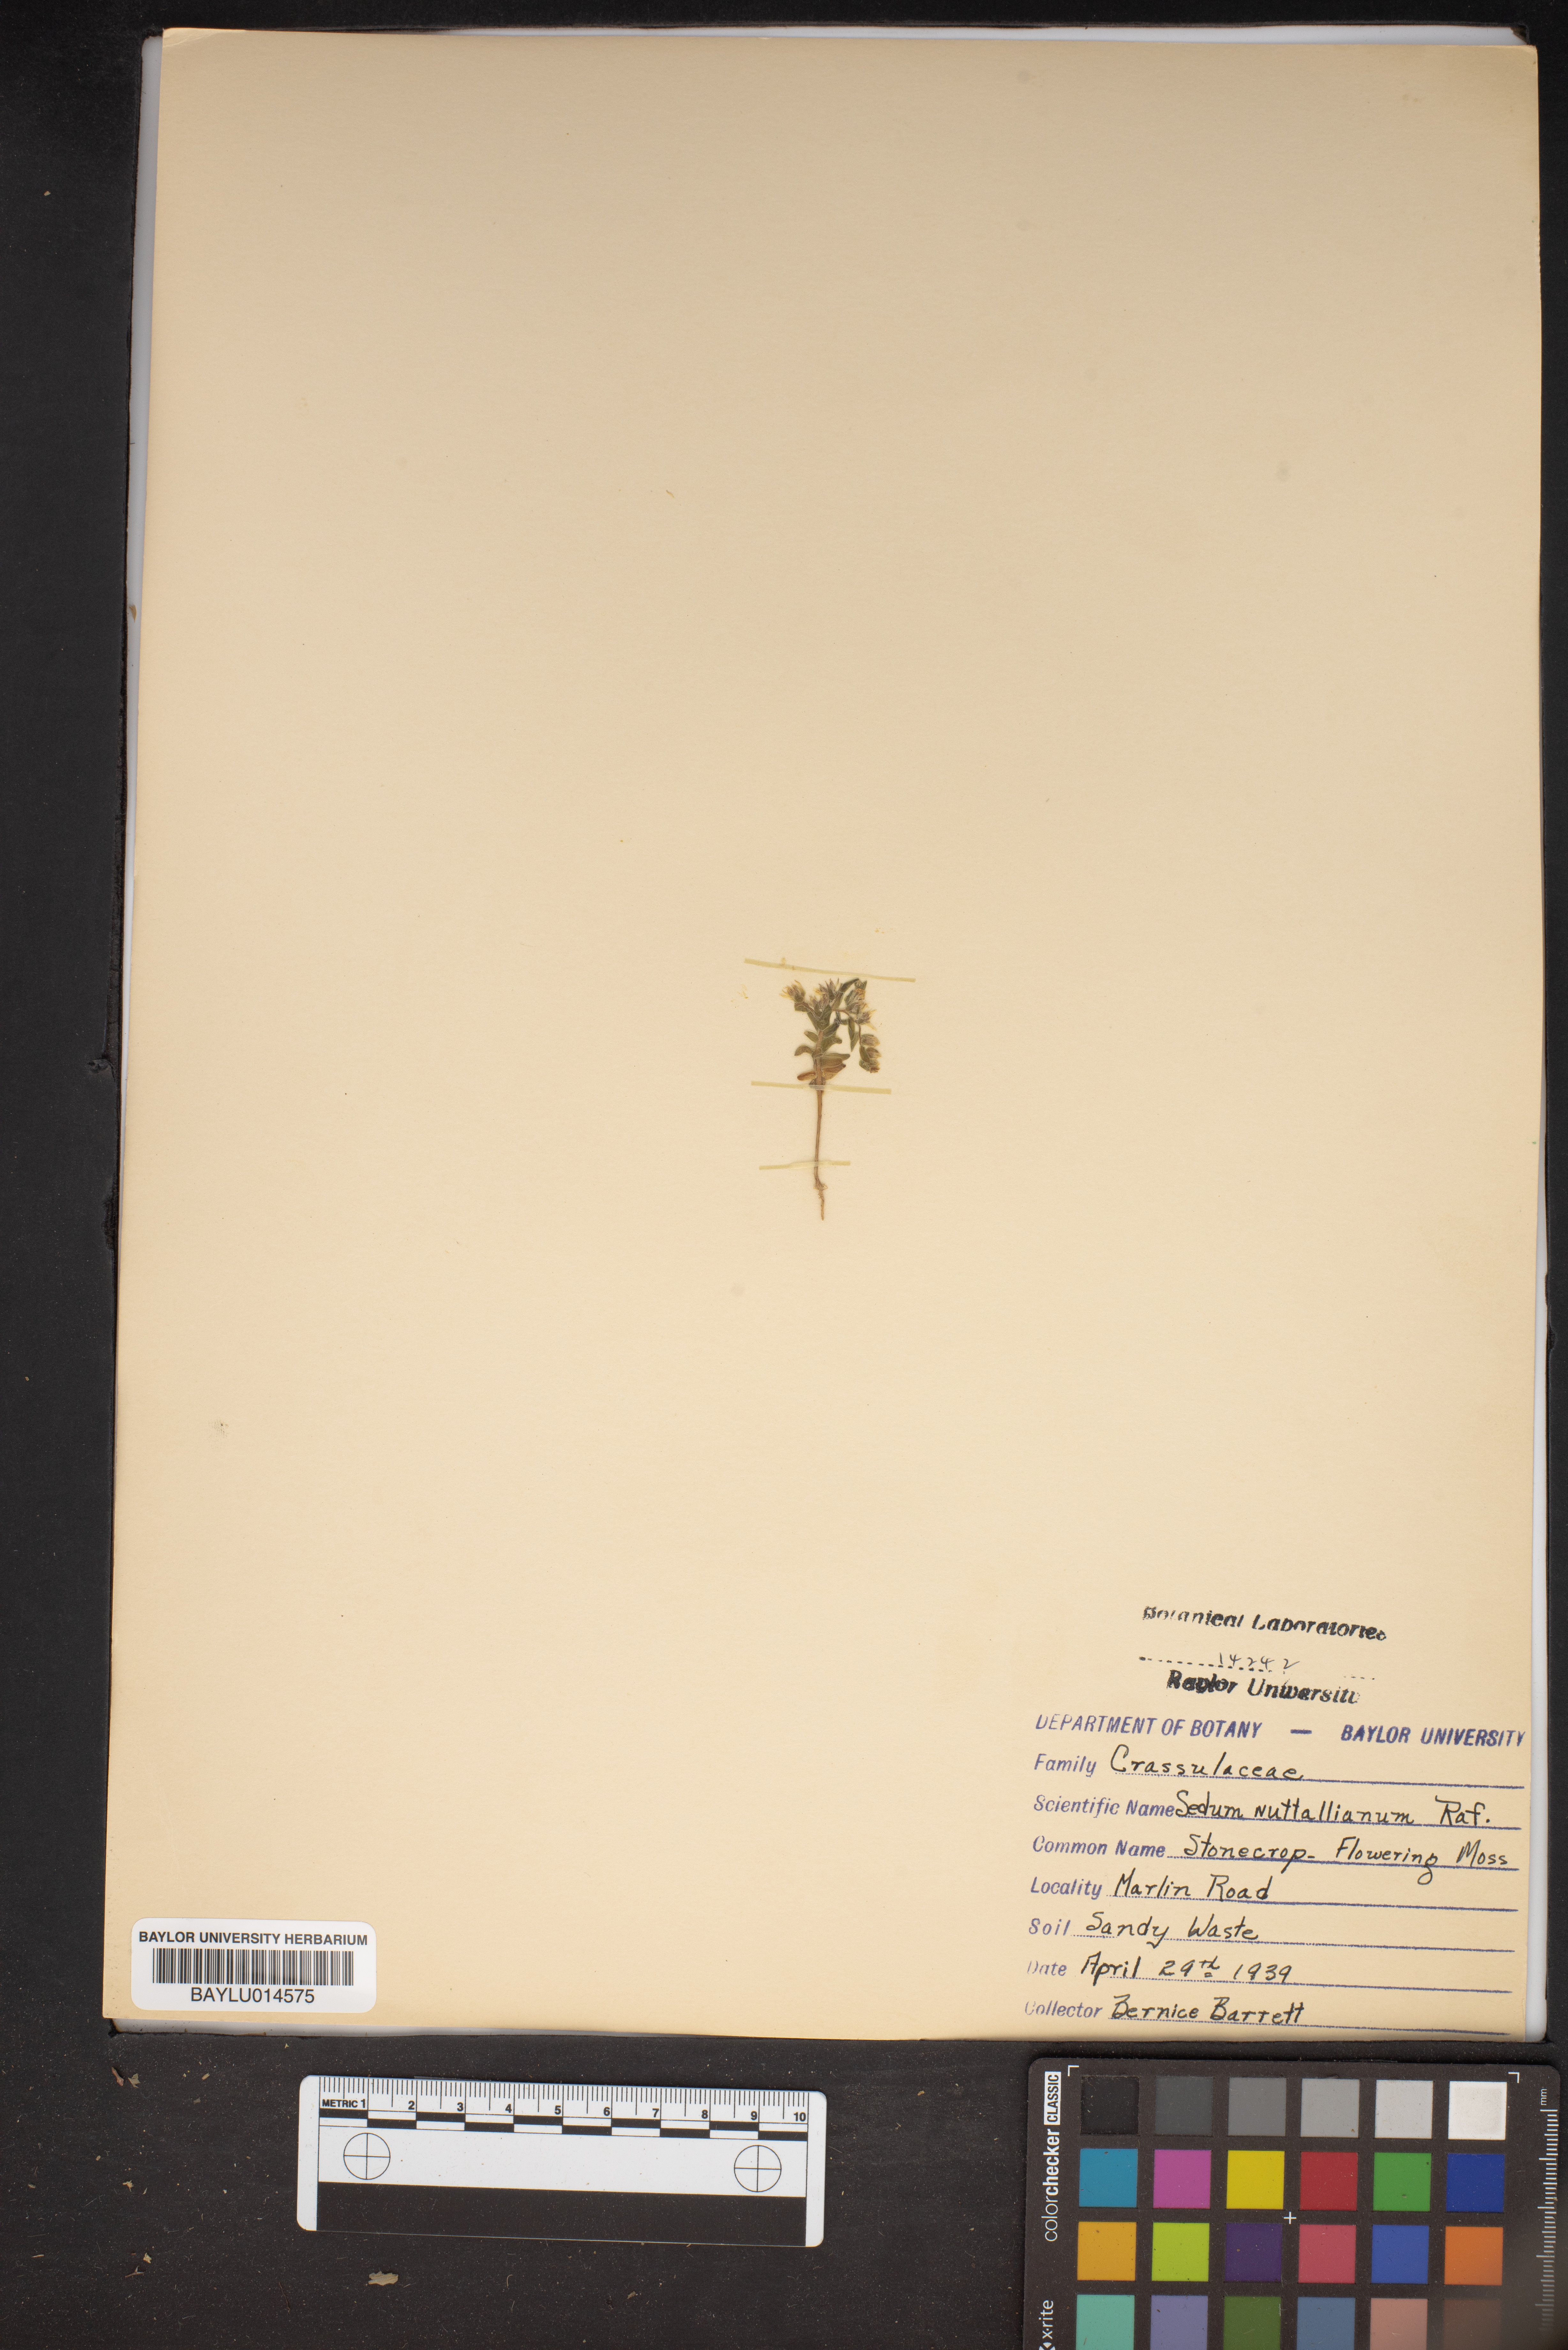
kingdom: Plantae
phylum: Tracheophyta
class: Magnoliopsida
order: Saxifragales
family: Crassulaceae
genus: Sedum
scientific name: Sedum nuttallii
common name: Yellow stonecrop
